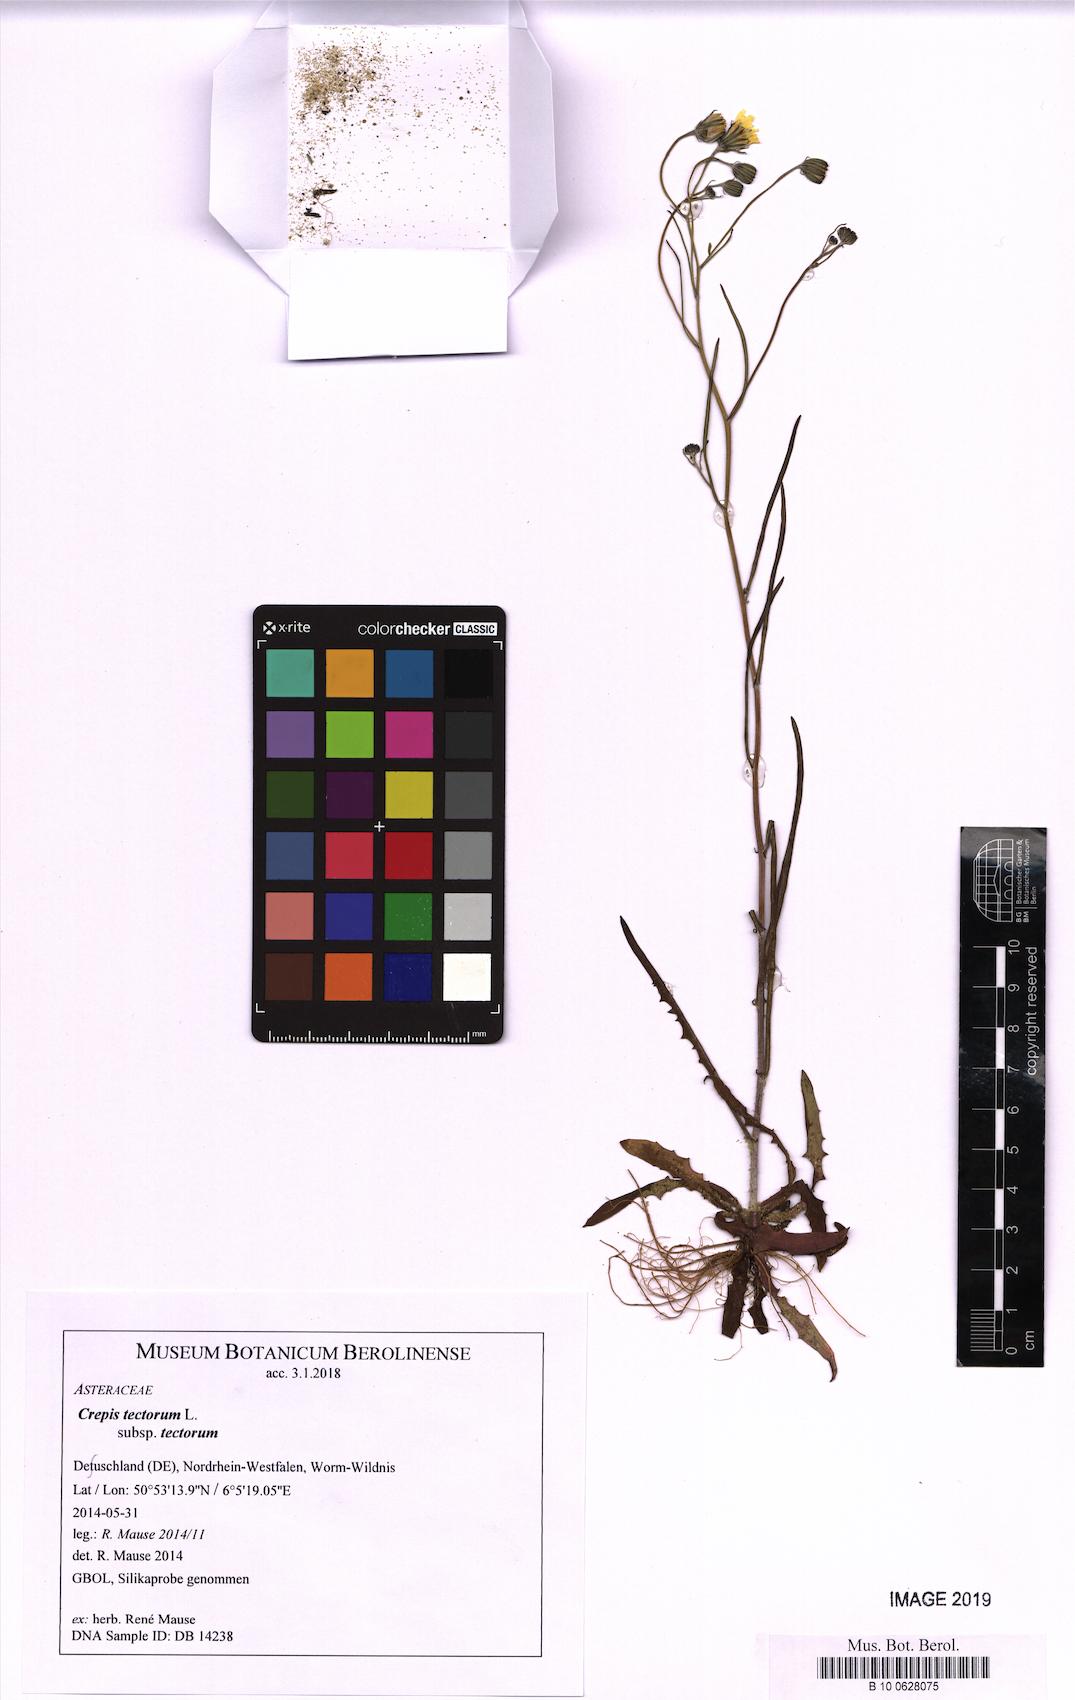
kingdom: Plantae
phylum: Tracheophyta
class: Magnoliopsida
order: Asterales
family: Asteraceae
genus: Crepis
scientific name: Crepis tectorum
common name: Narrow-leaved hawk's-beard
